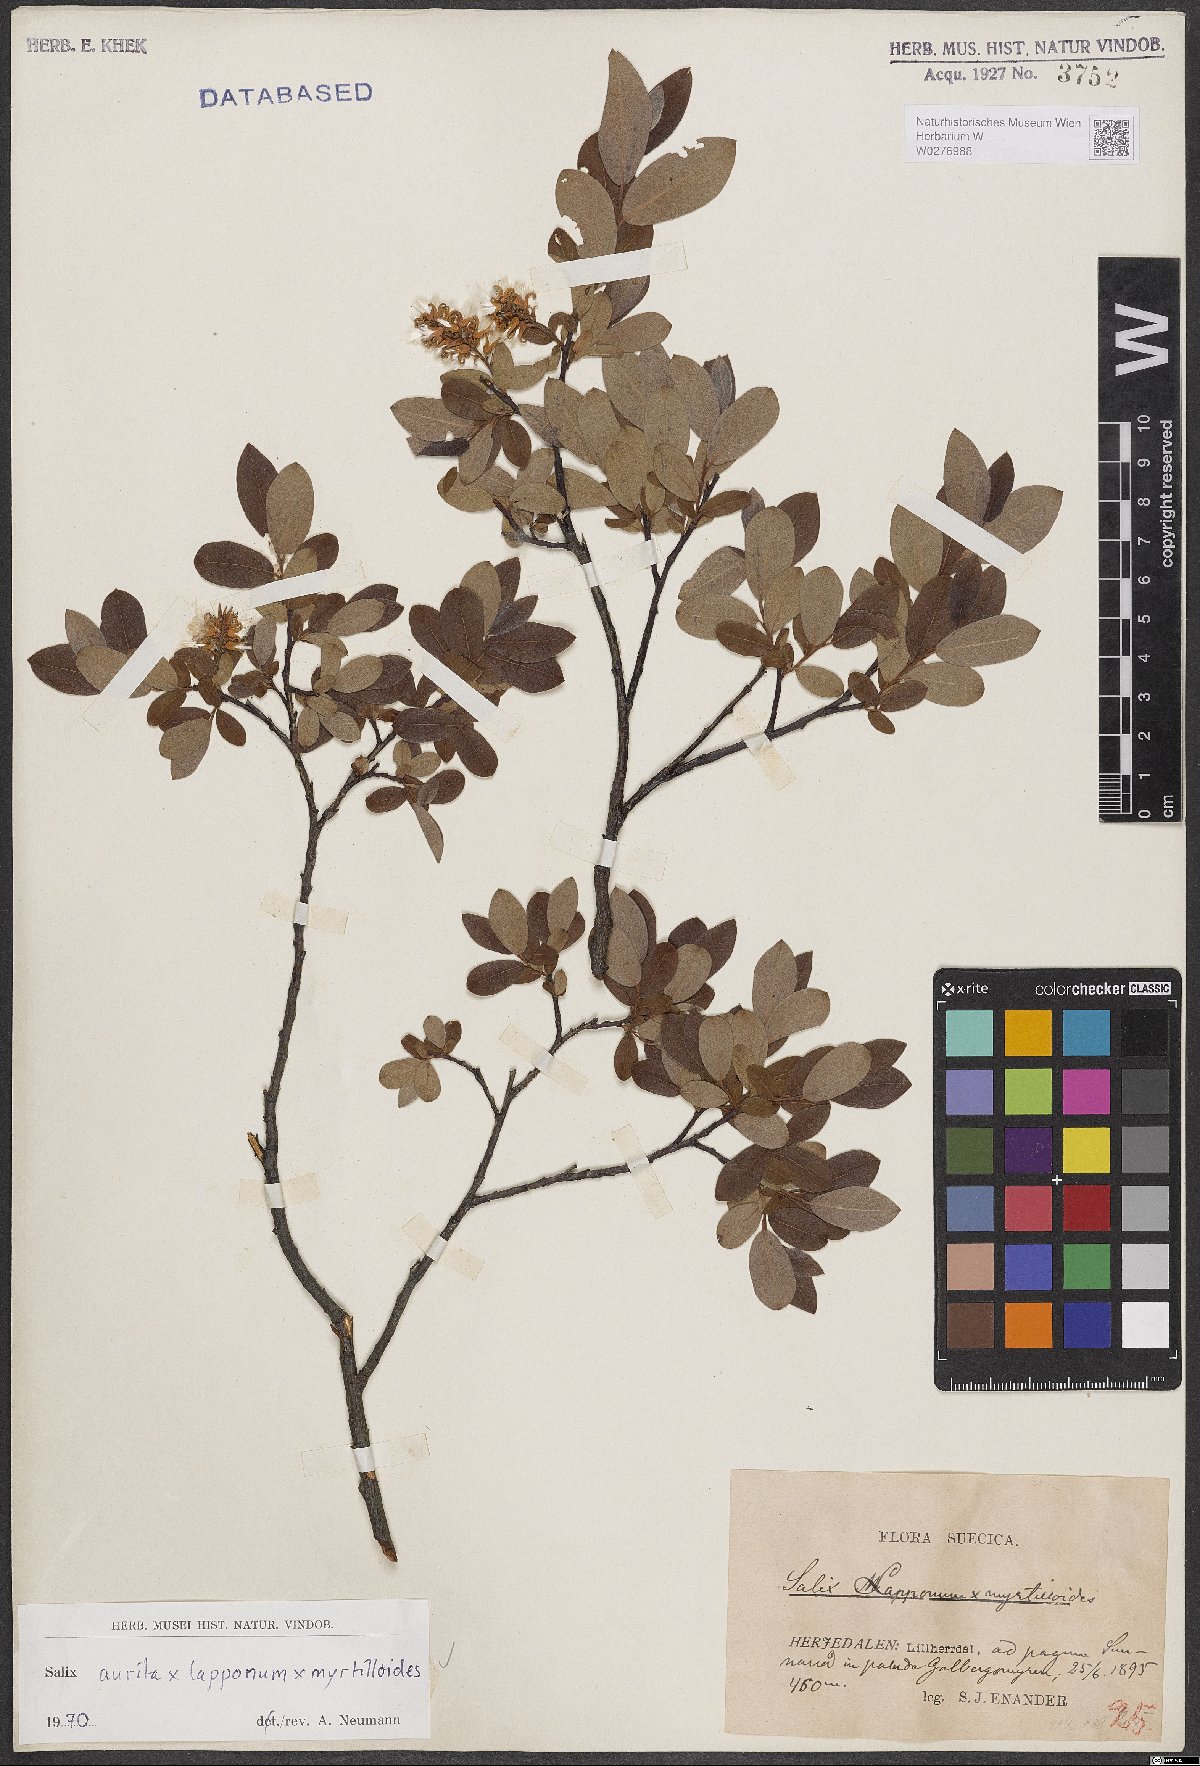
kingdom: Plantae
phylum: Tracheophyta
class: Magnoliopsida
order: Malpighiales
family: Salicaceae
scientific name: Salicaceae
